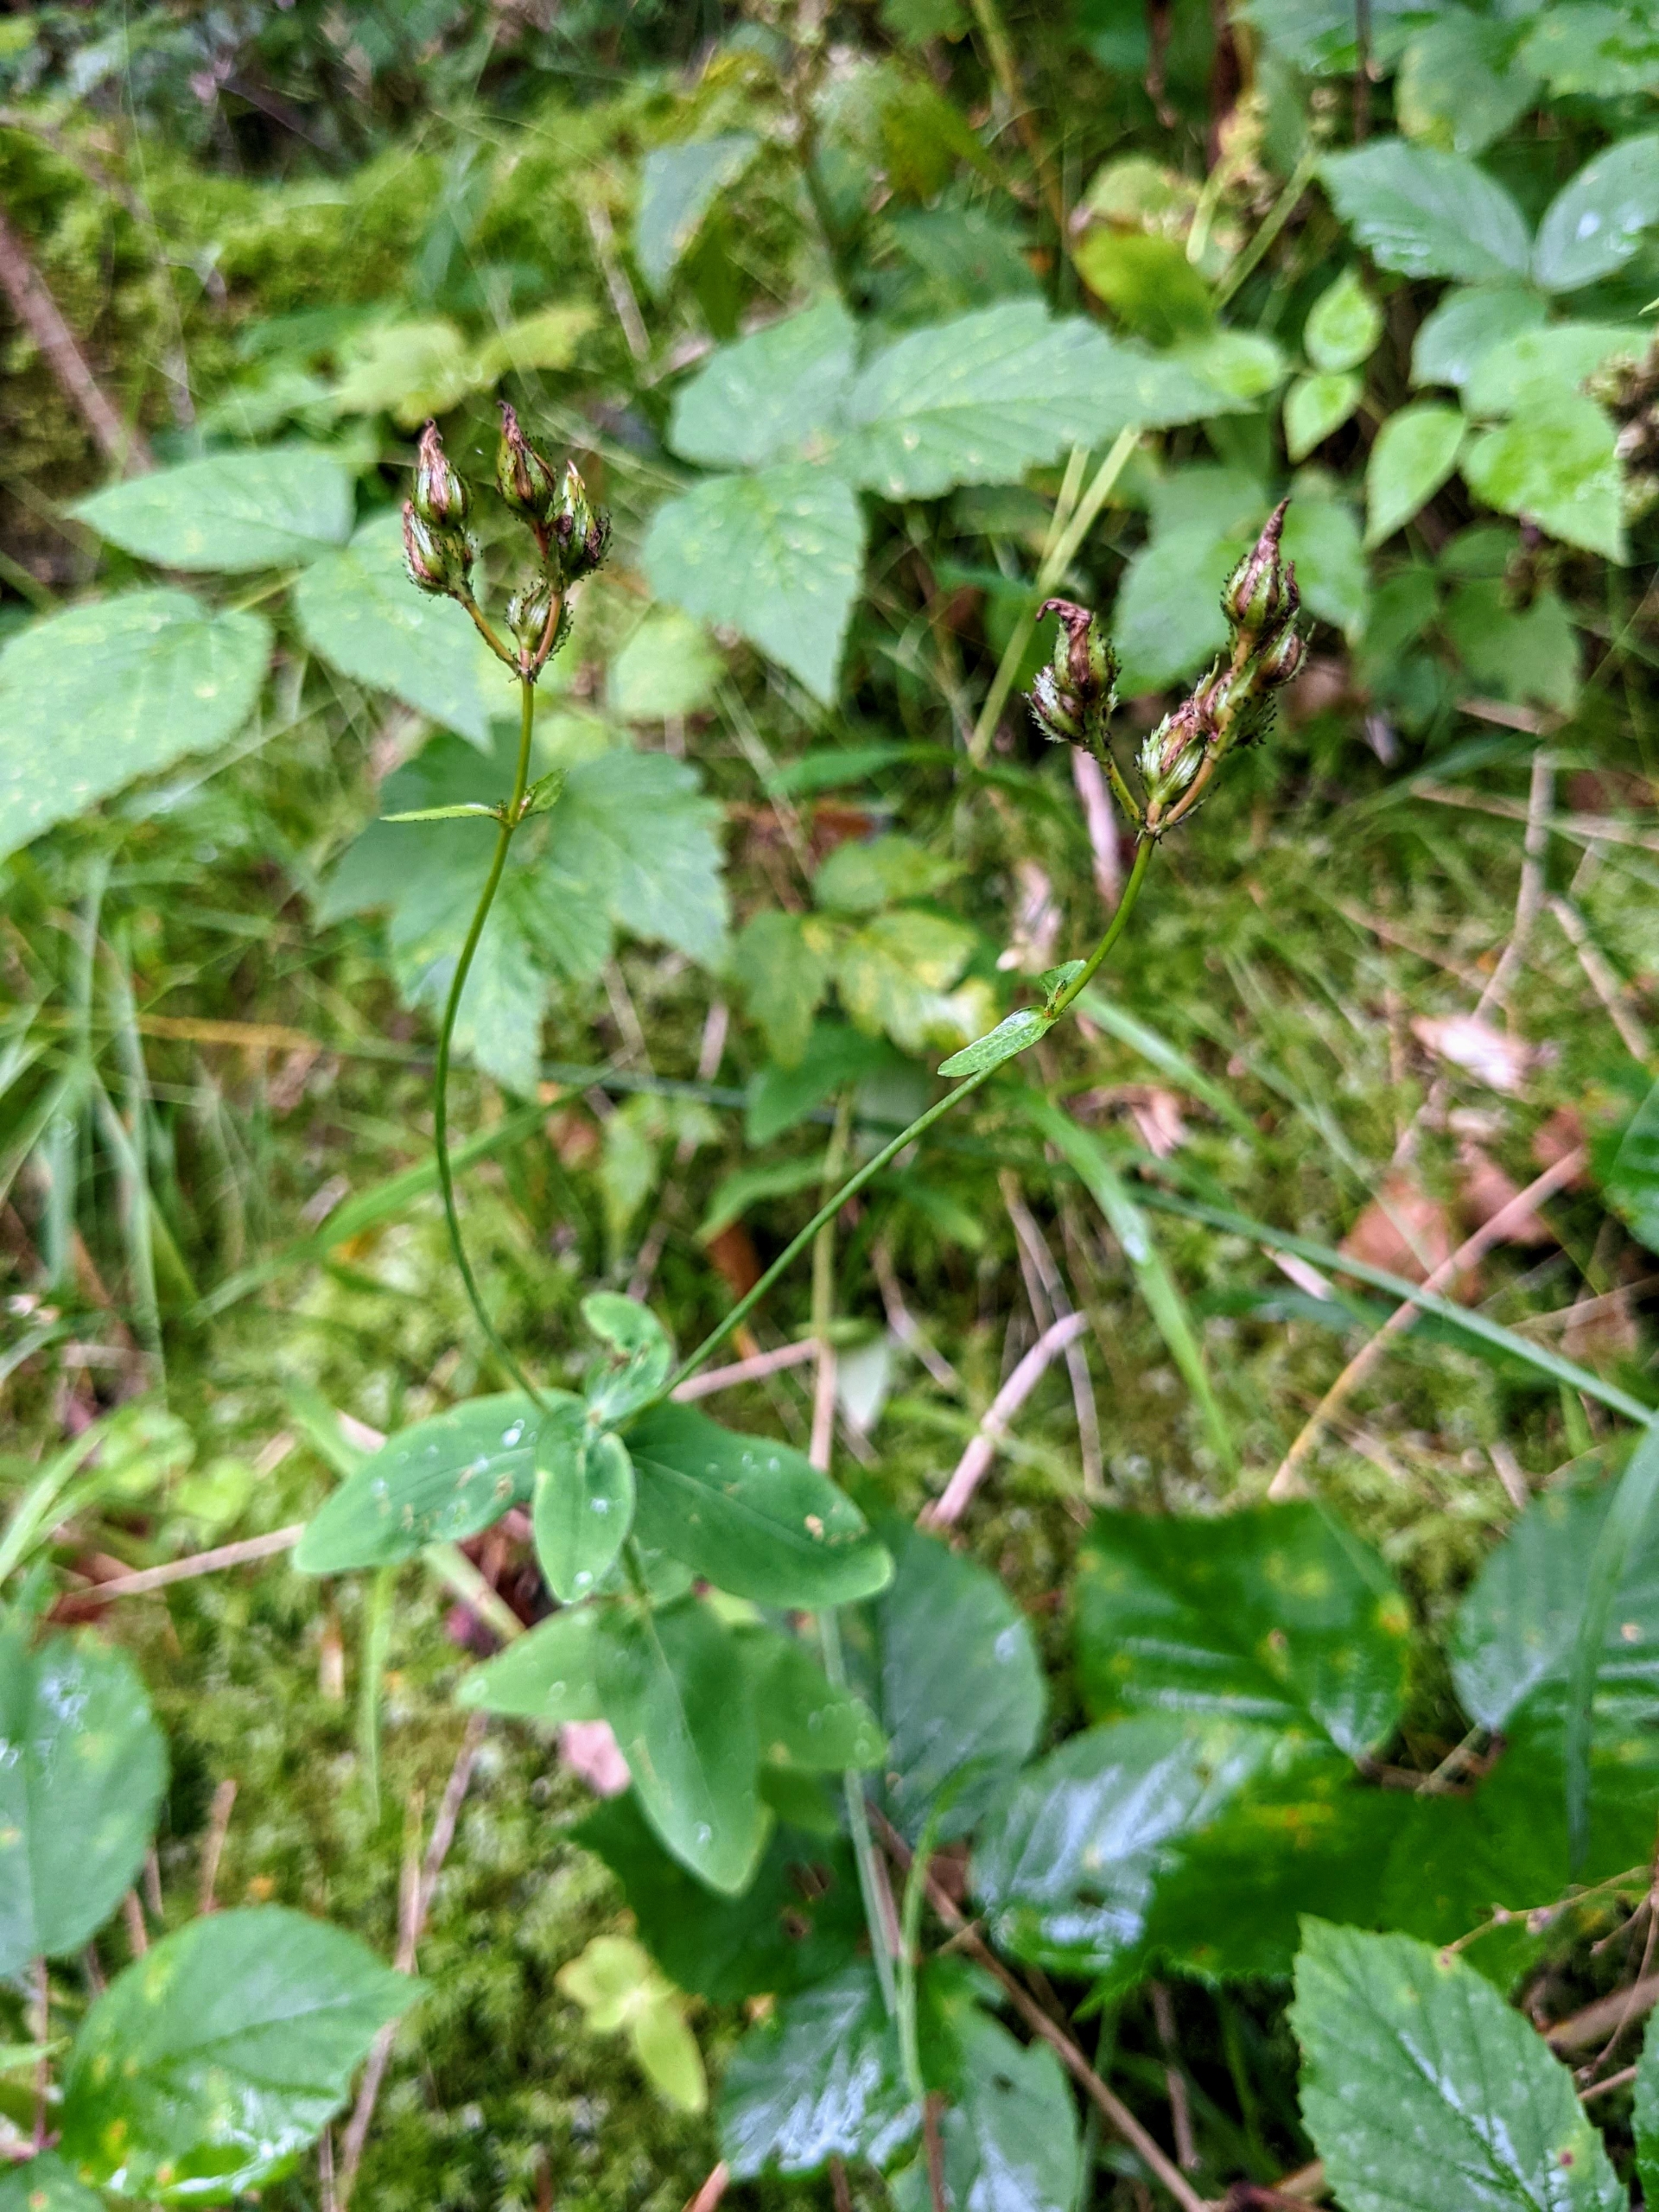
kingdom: Plantae
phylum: Tracheophyta
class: Magnoliopsida
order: Malpighiales
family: Hypericaceae
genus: Hypericum
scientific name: Hypericum montanum
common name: Bjerg-perikon
